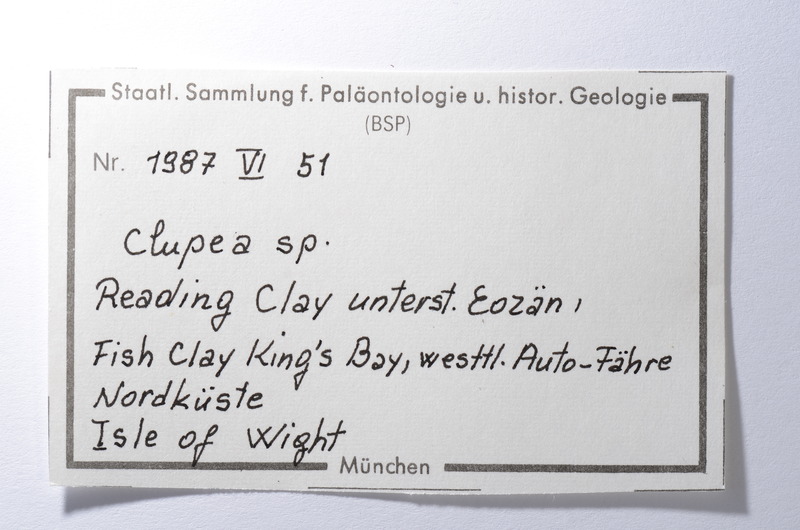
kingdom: Animalia
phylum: Chordata
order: Clupeiformes
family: Clupeidae
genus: Clupea
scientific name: Clupea
